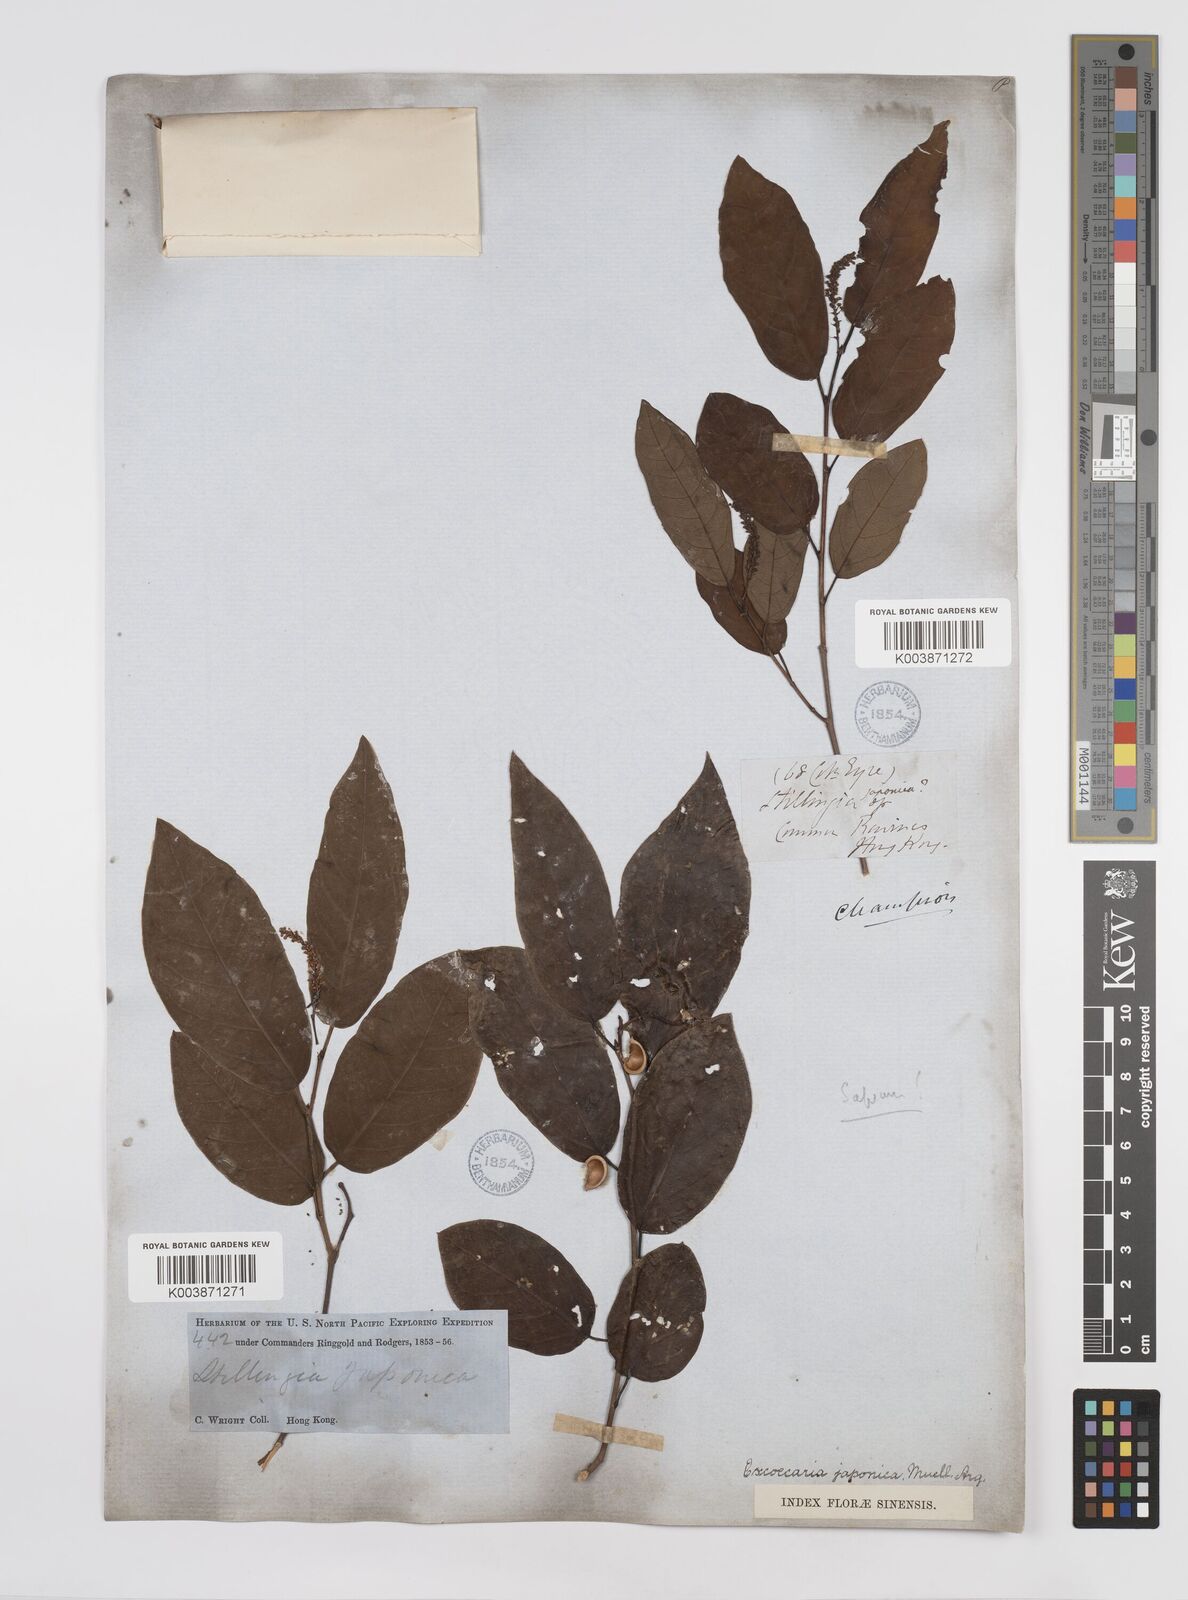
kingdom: Plantae
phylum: Tracheophyta
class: Magnoliopsida
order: Malpighiales
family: Euphorbiaceae
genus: Neoshirakia
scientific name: Neoshirakia japonica
